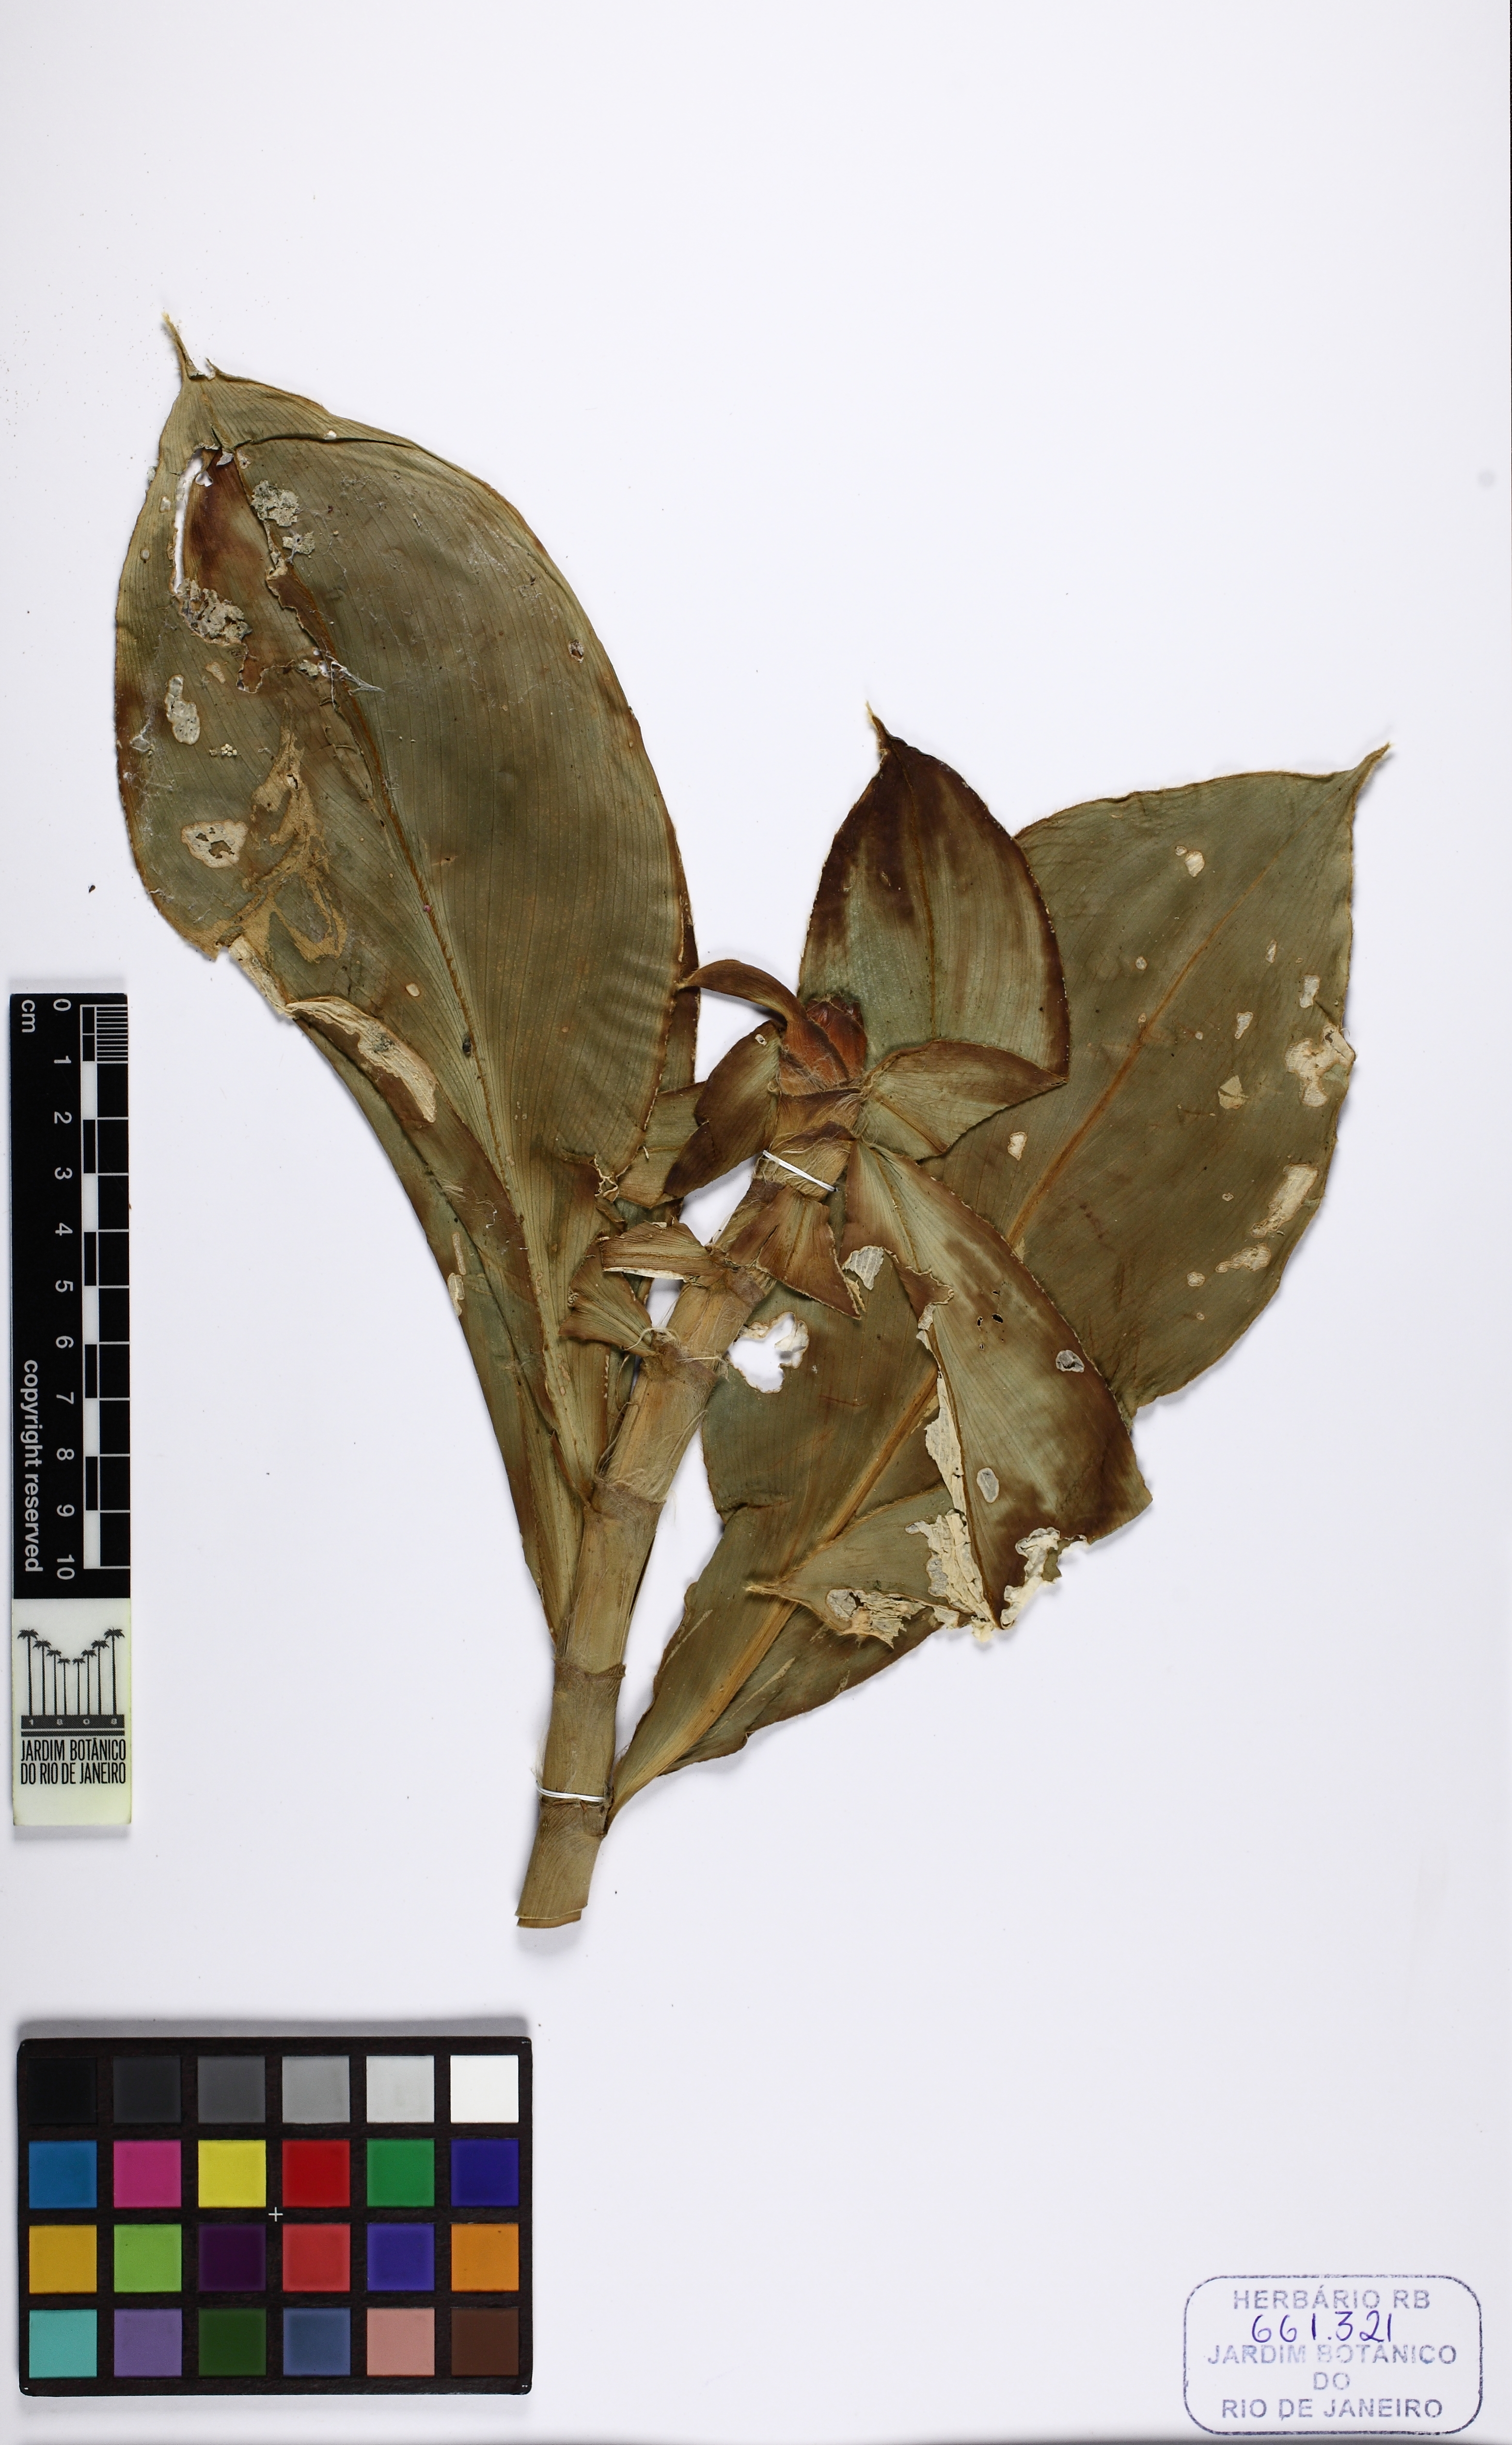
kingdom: Plantae
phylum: Tracheophyta
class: Liliopsida
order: Zingiberales
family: Costaceae
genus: Costus
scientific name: Costus spiralis
